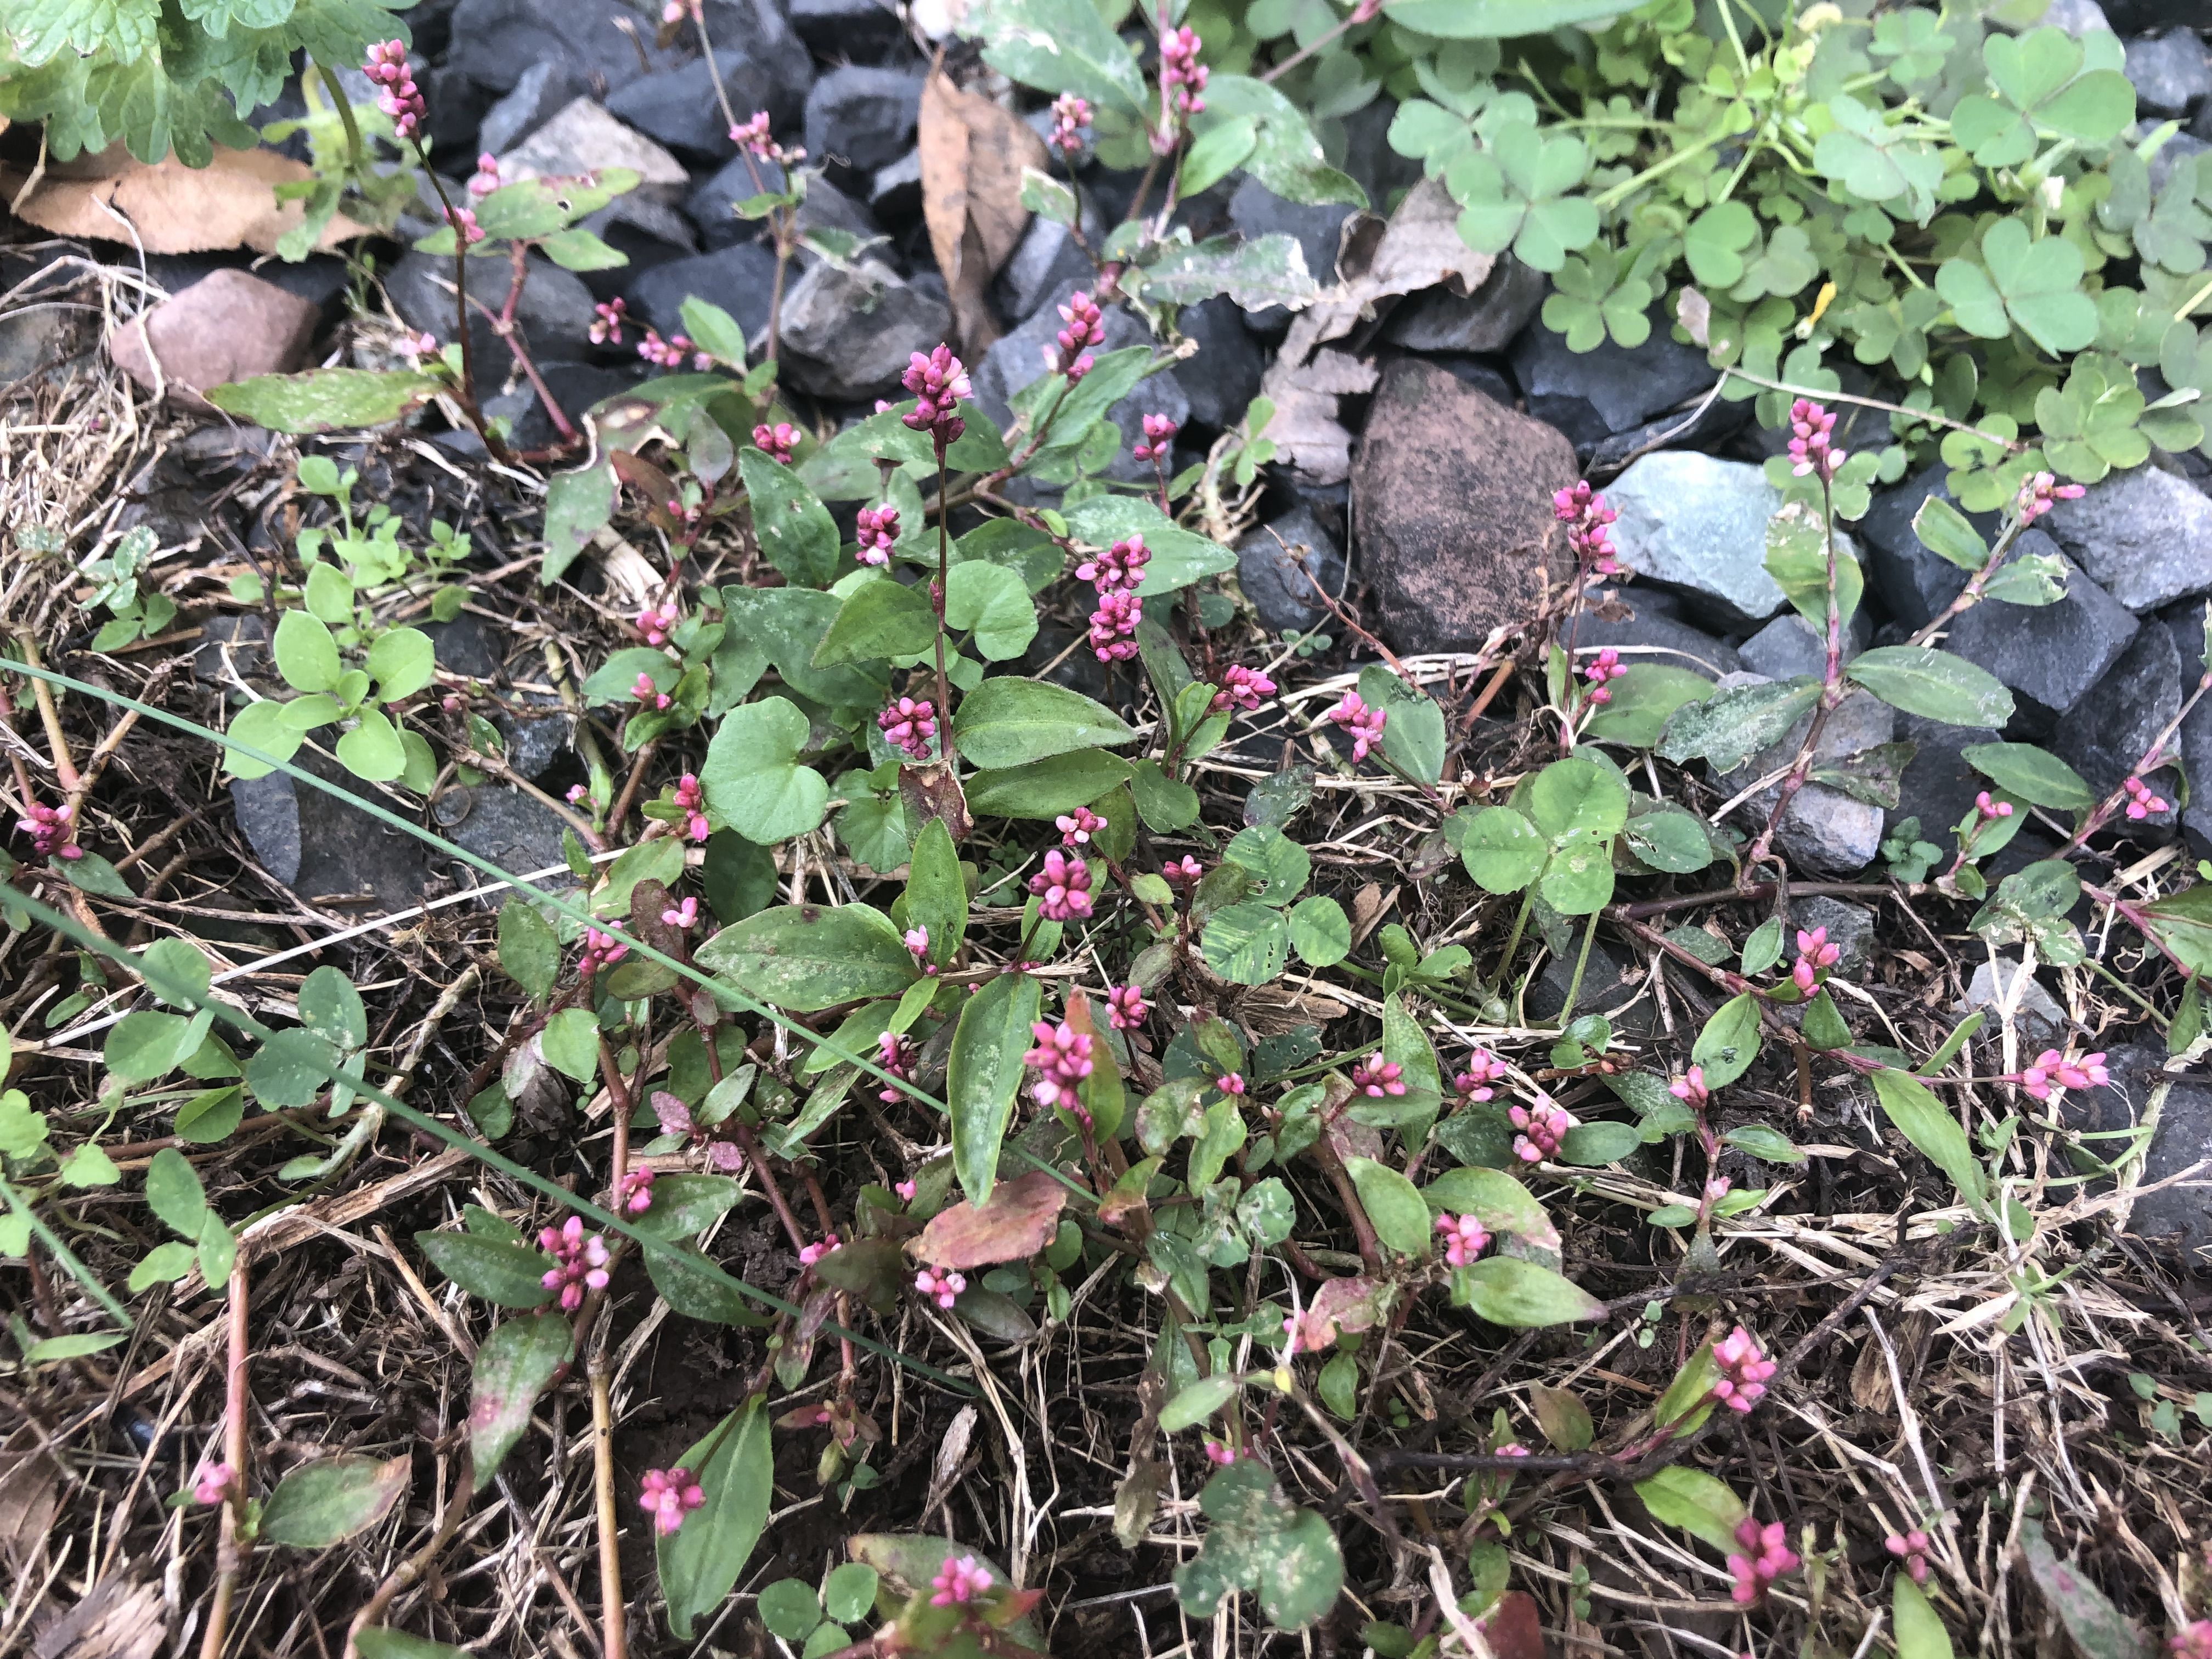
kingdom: Plantae
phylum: Tracheophyta
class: Magnoliopsida
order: Caryophyllales
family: Polygonaceae
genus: Persicaria
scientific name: Persicaria longiseta
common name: Low smartweed
